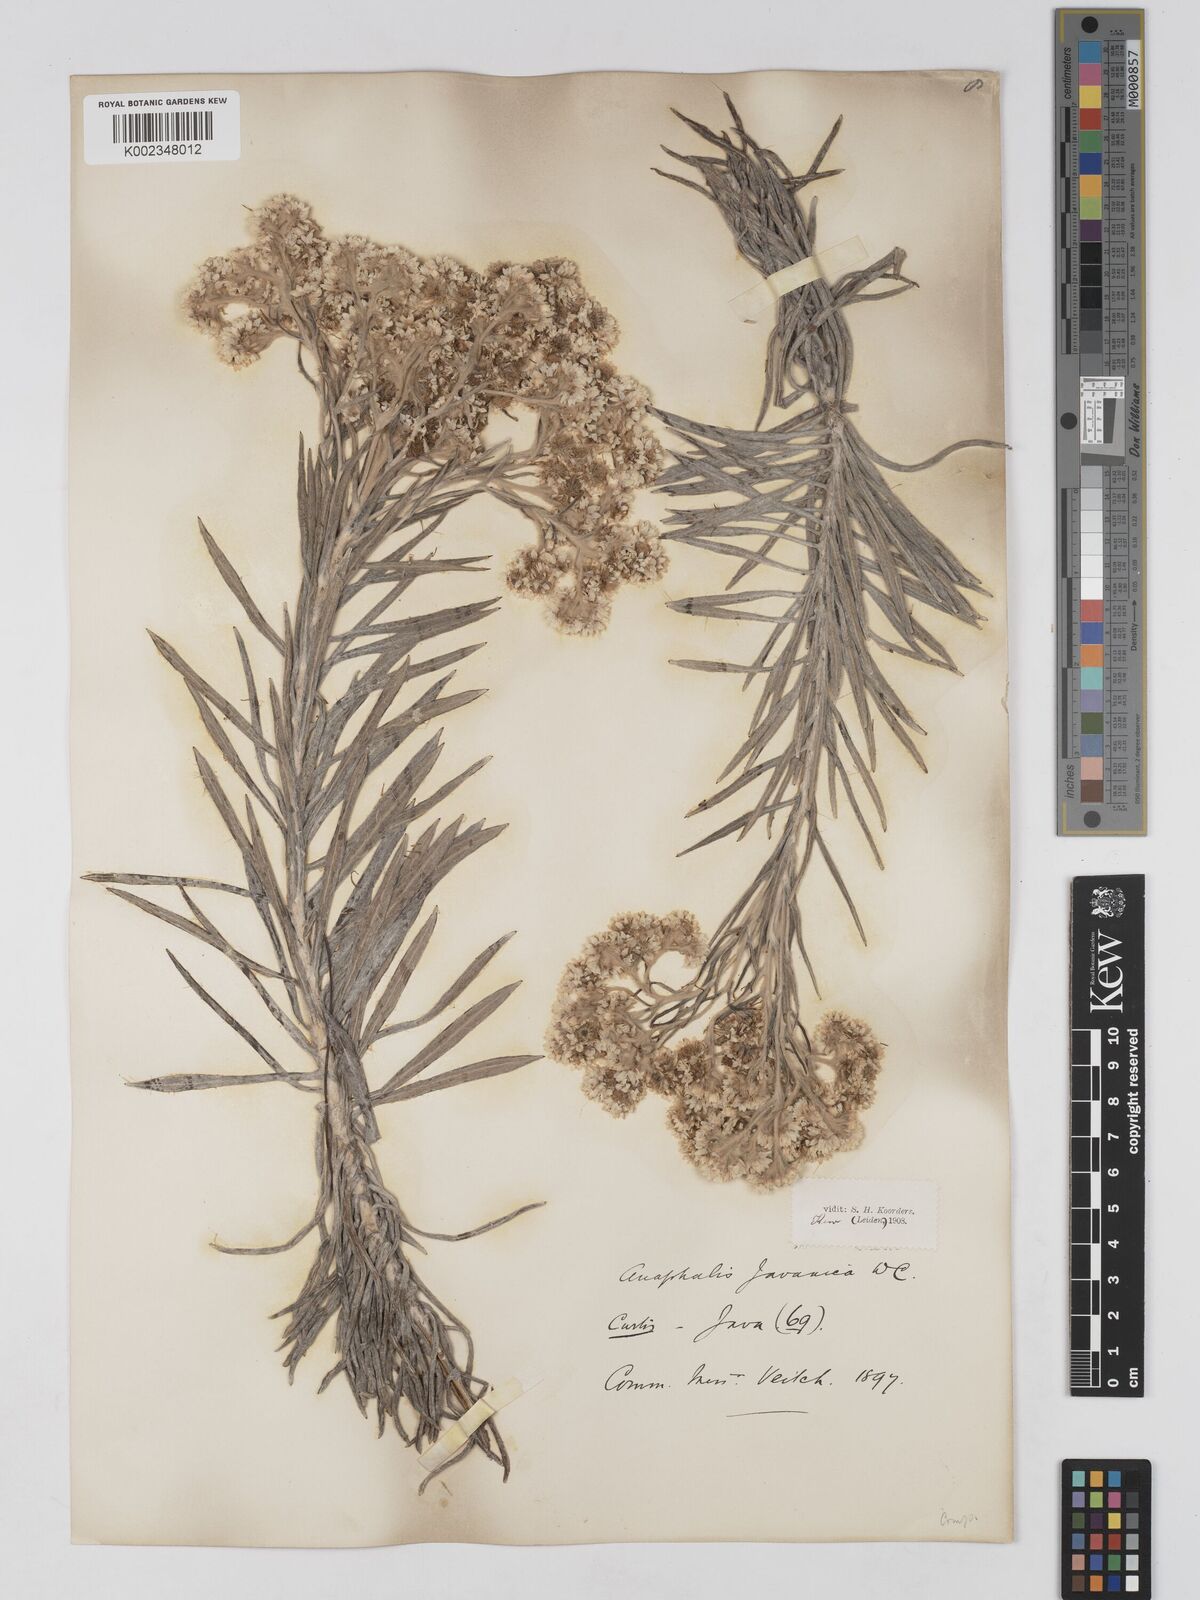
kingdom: Plantae
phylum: Tracheophyta
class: Magnoliopsida
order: Asterales
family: Asteraceae
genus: Anaphalis
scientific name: Anaphalis javanica
